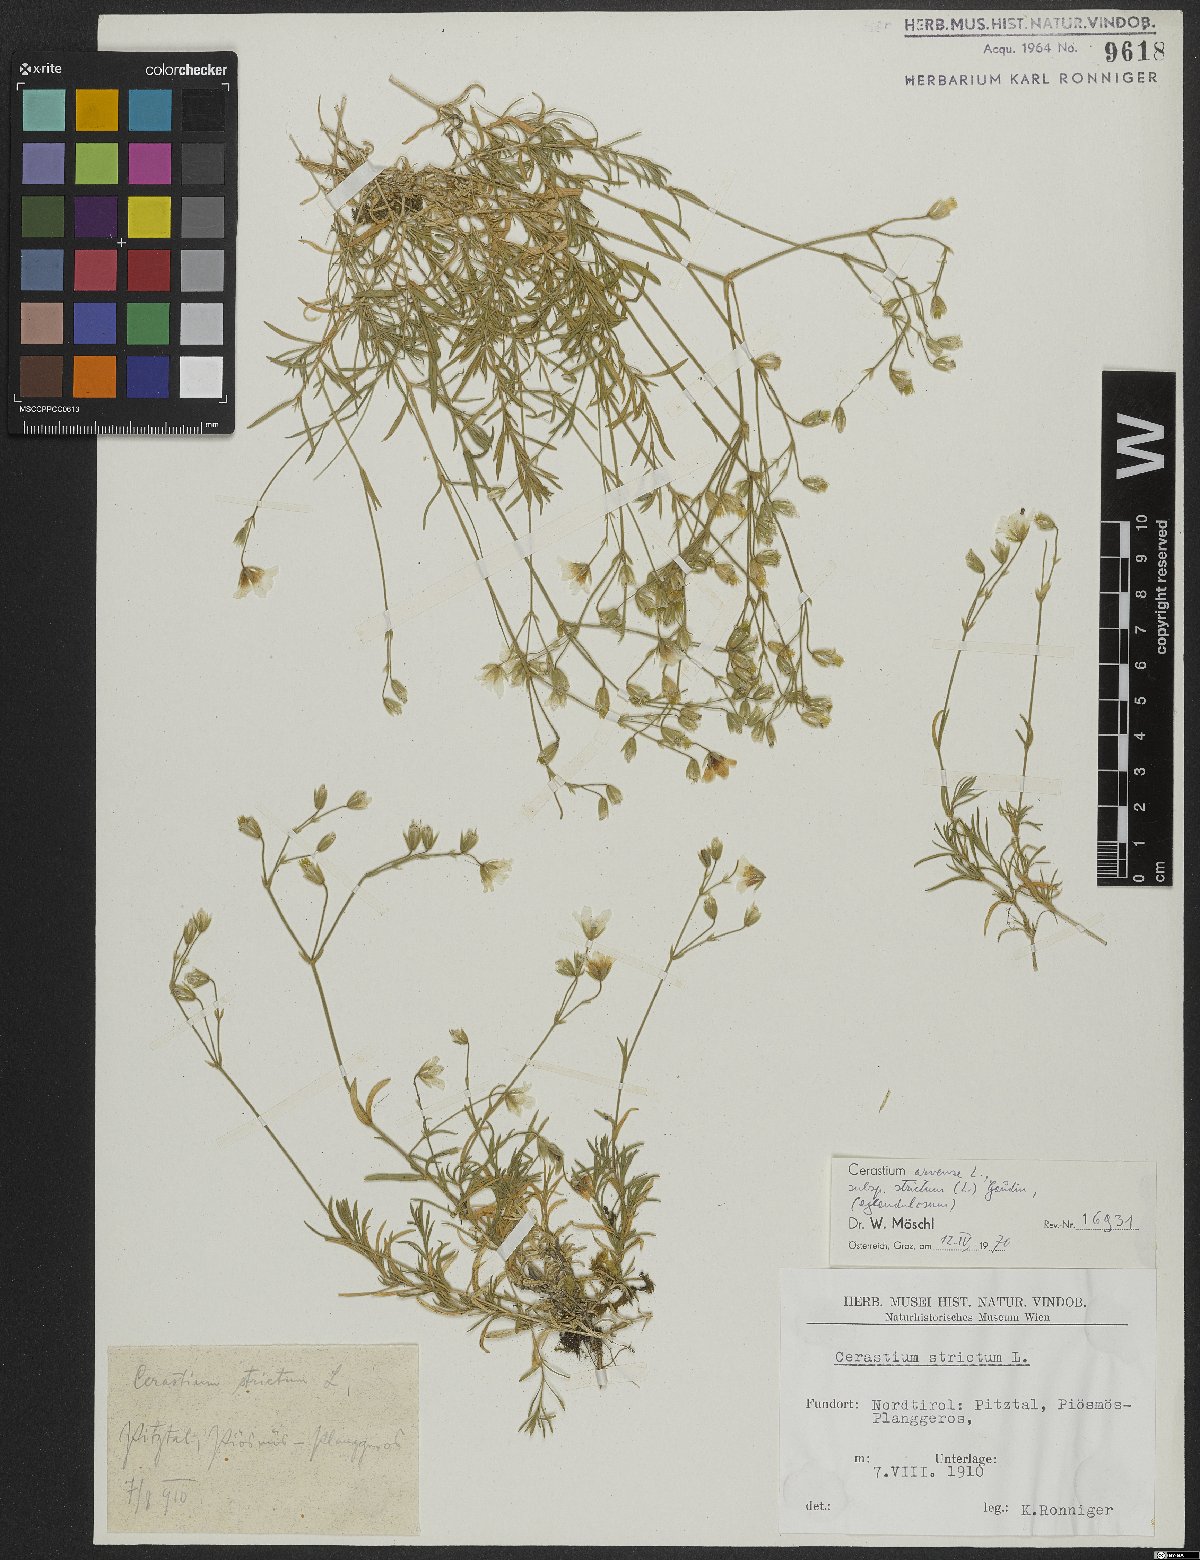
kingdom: Plantae
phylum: Tracheophyta
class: Magnoliopsida
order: Caryophyllales
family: Caryophyllaceae
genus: Cerastium
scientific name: Cerastium elongatum
